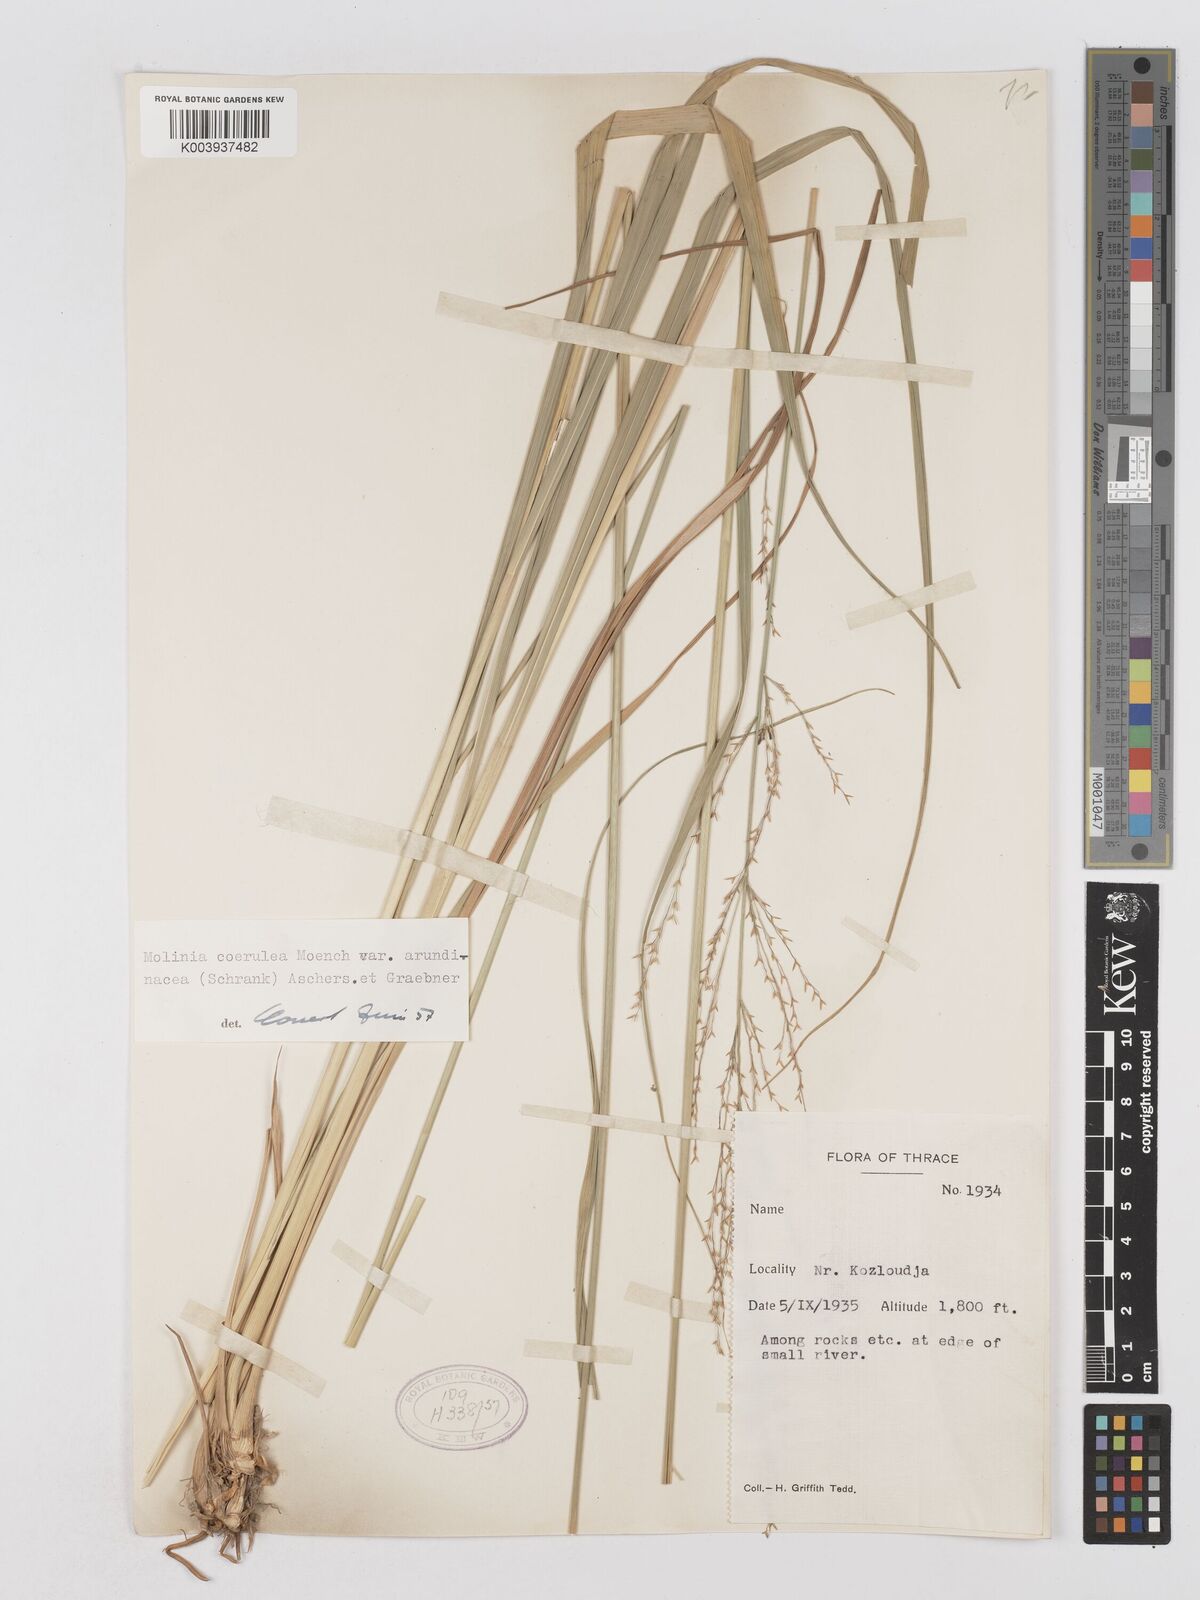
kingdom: Plantae
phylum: Tracheophyta
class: Liliopsida
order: Poales
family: Poaceae
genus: Molinia
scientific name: Molinia caerulea
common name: Purple moor-grass
